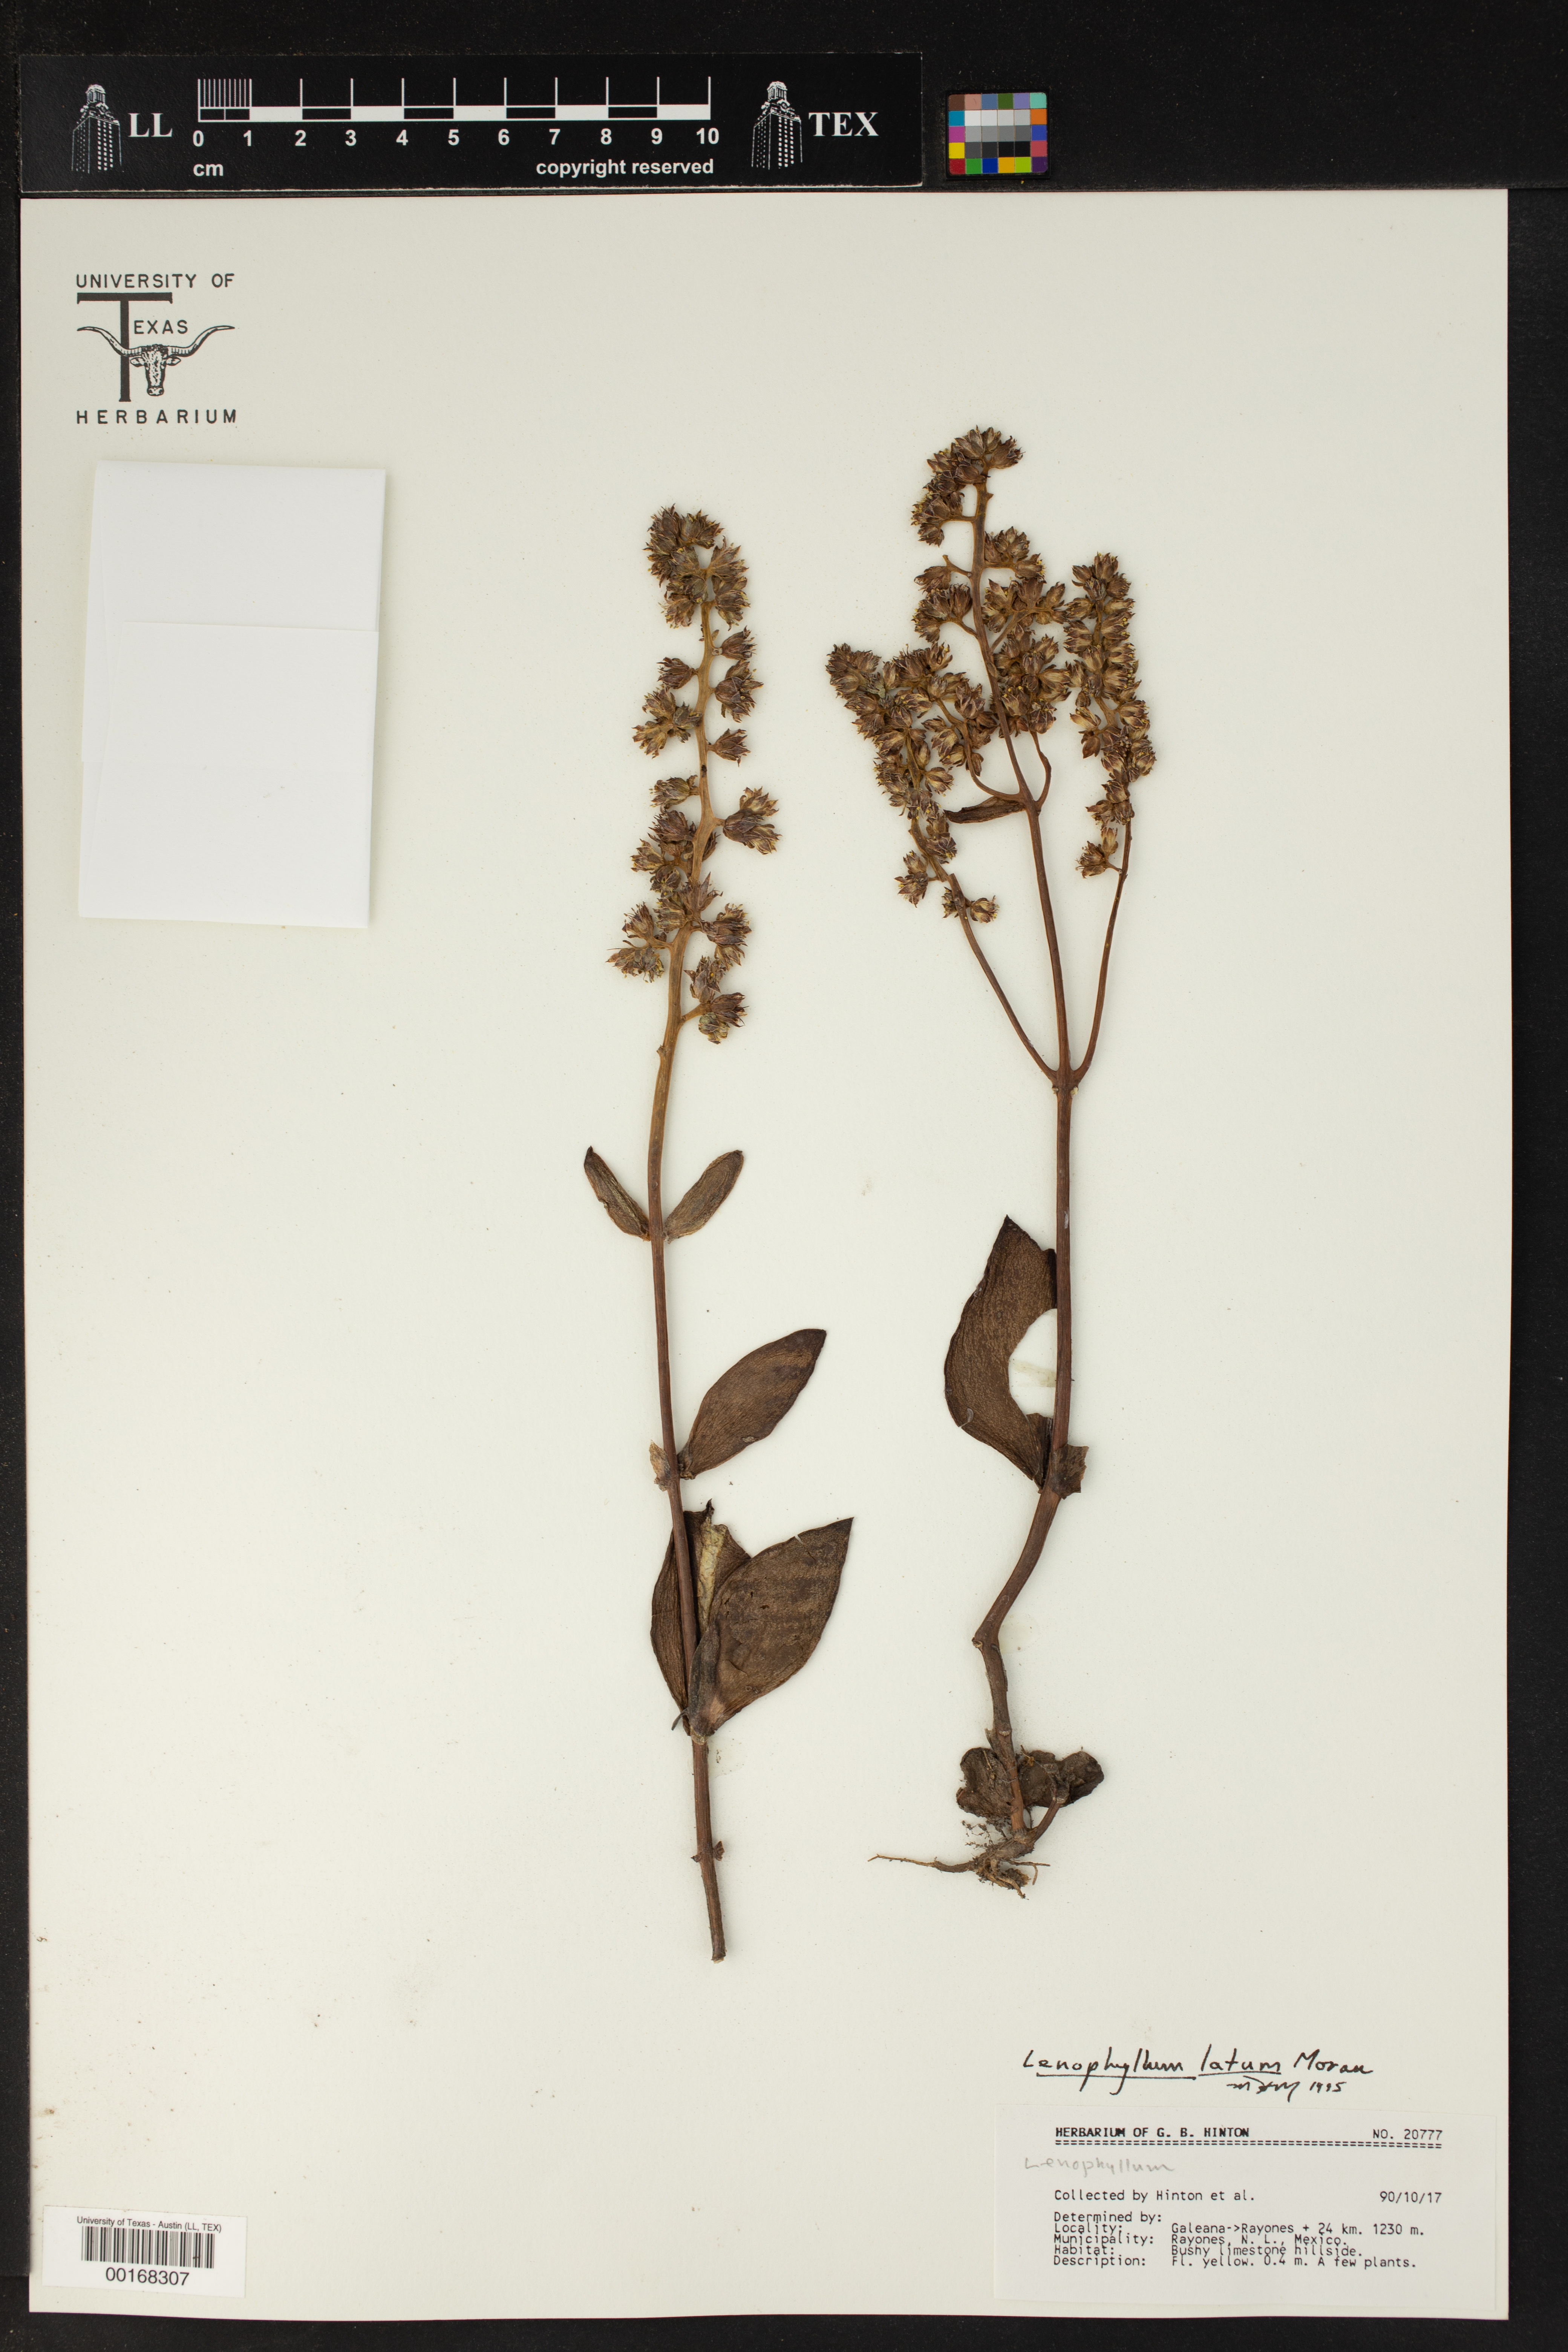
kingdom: Plantae
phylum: Tracheophyta
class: Magnoliopsida
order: Saxifragales
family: Crassulaceae
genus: Lenophyllum
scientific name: Lenophyllum latum
